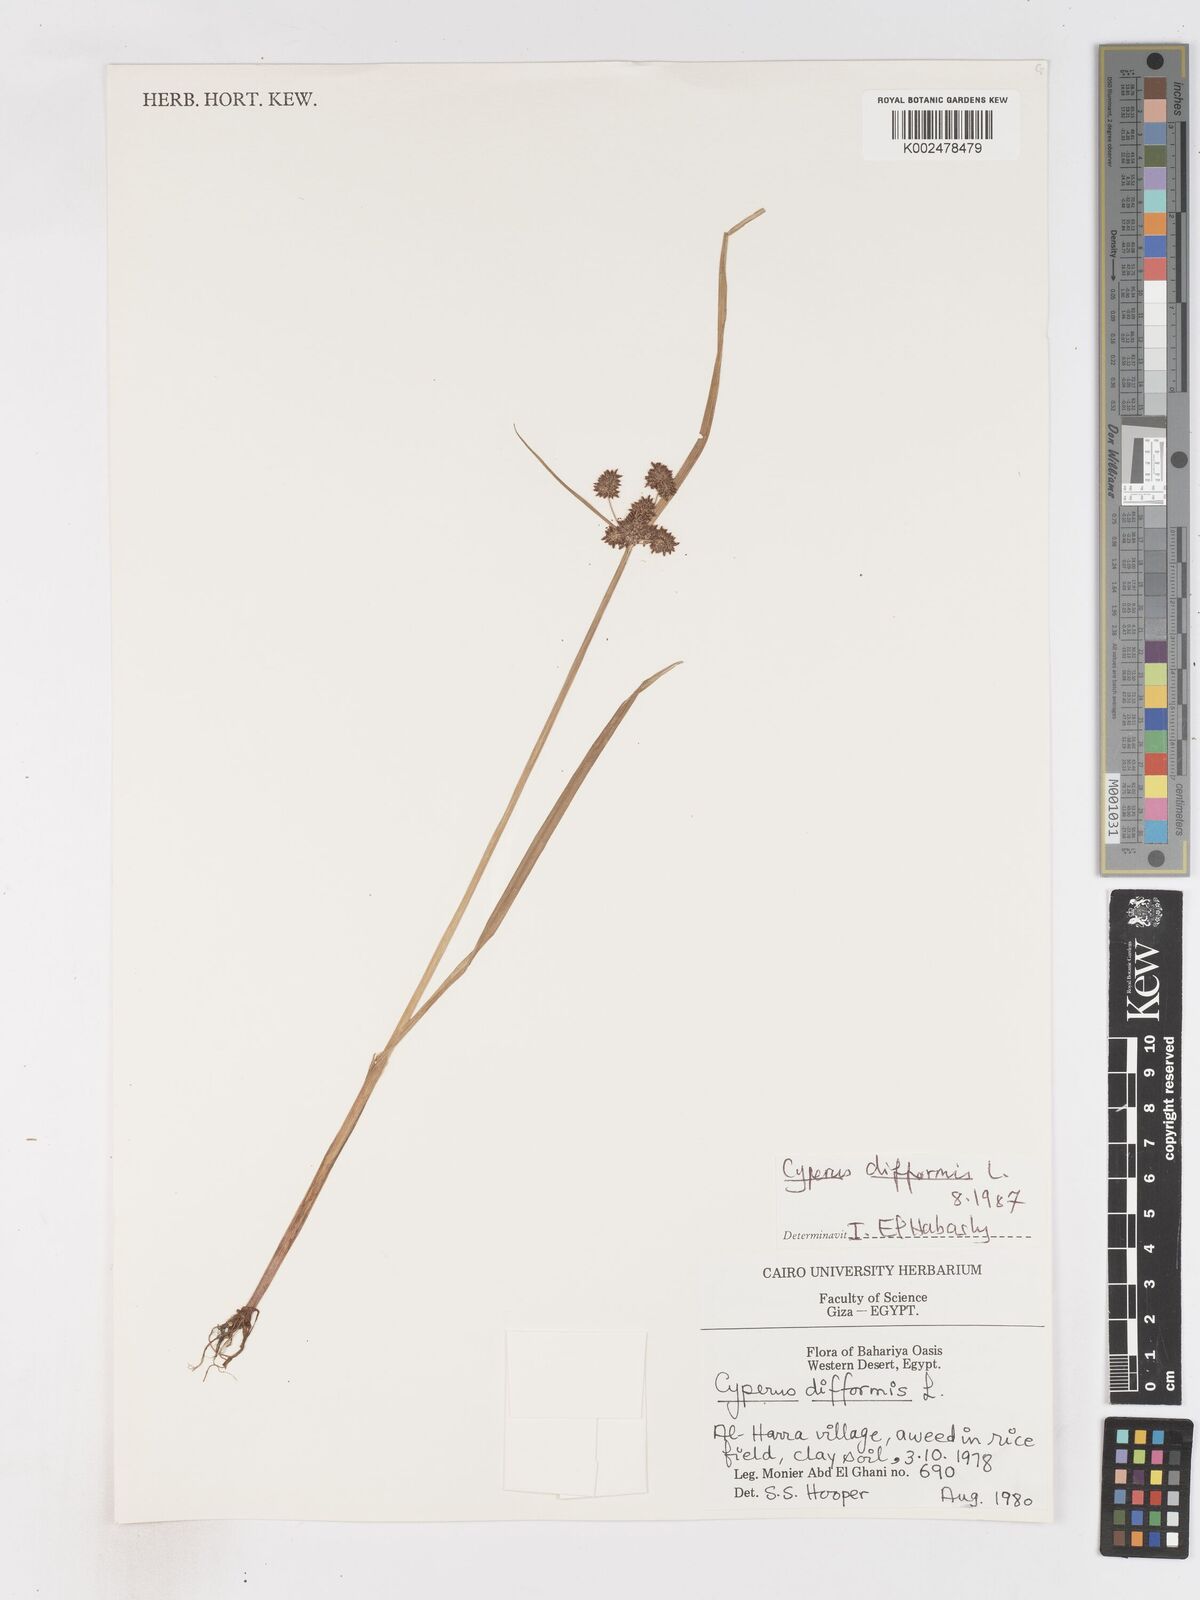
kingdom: Plantae
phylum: Tracheophyta
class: Liliopsida
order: Poales
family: Cyperaceae
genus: Cyperus
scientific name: Cyperus difformis
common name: Variable flatsedge
